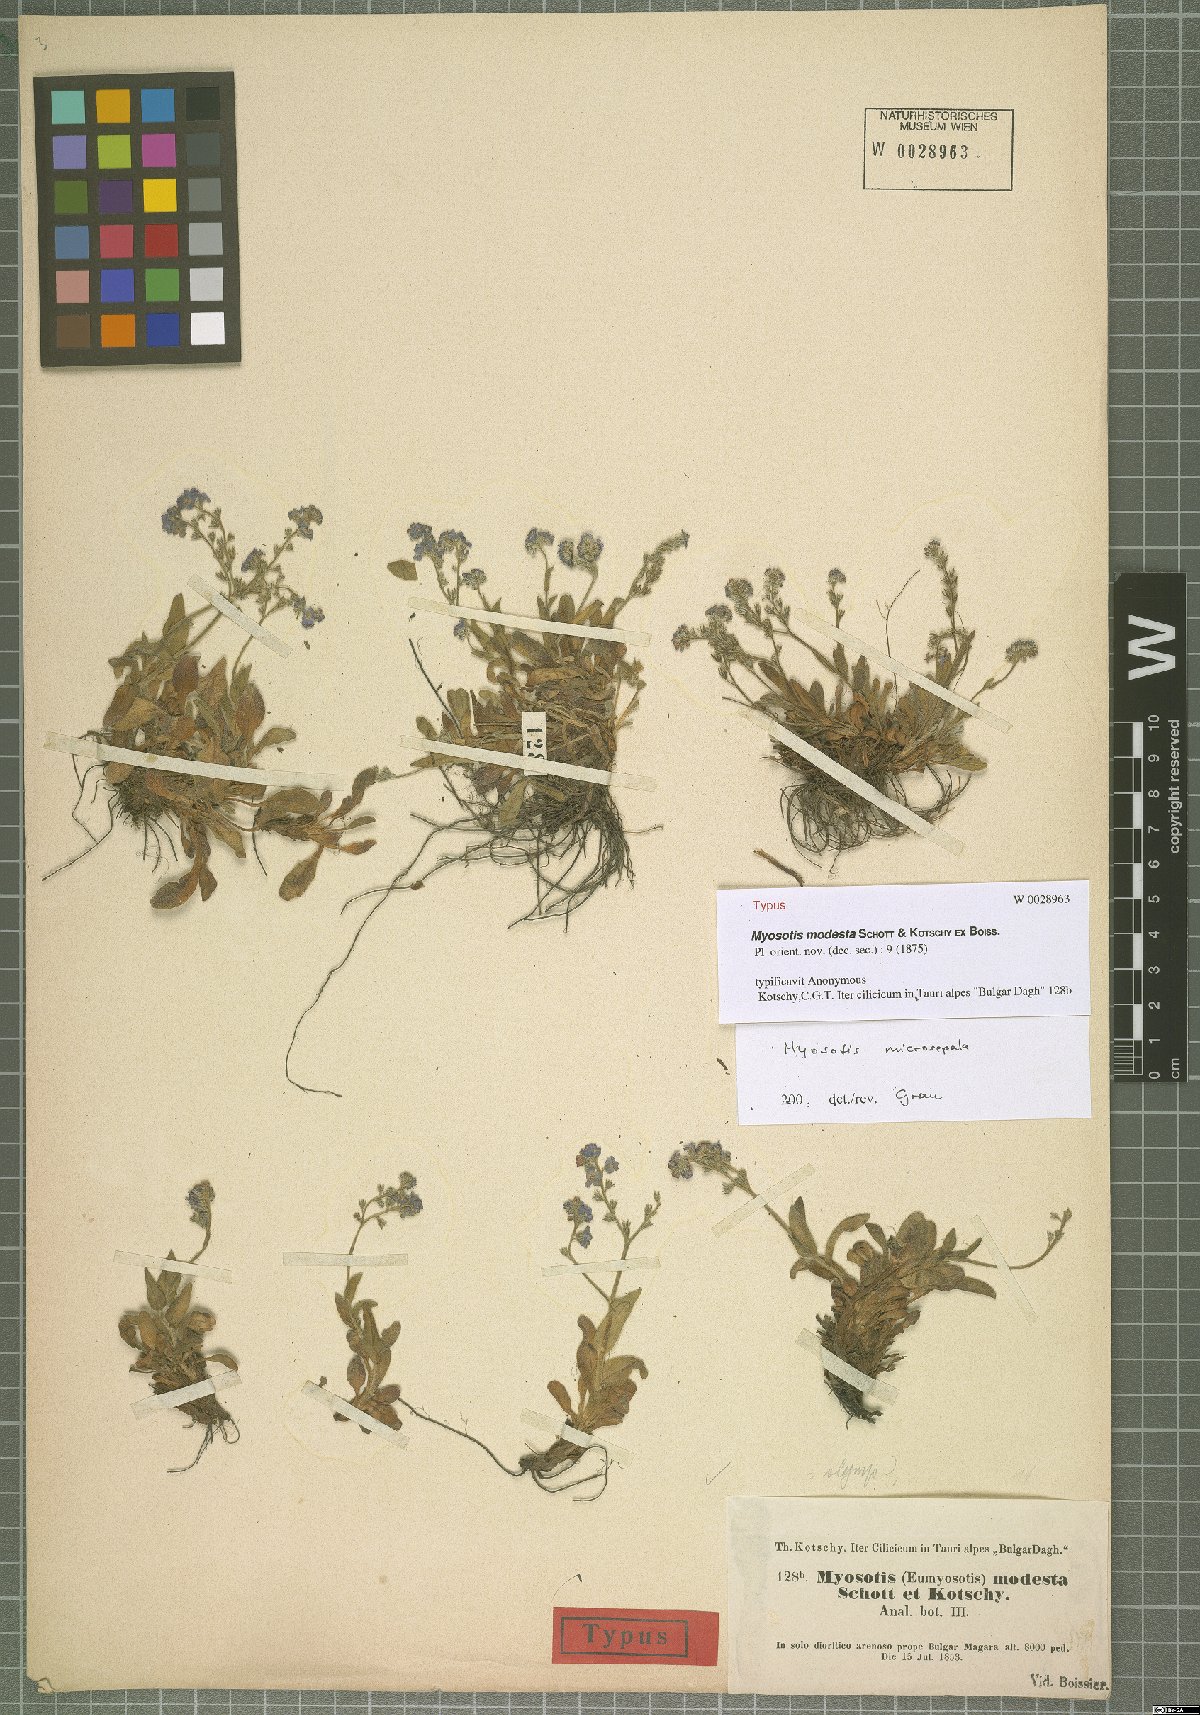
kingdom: Plantae
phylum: Tracheophyta
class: Magnoliopsida
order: Boraginales
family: Boraginaceae
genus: Myosotis
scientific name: Myosotis microsepala
